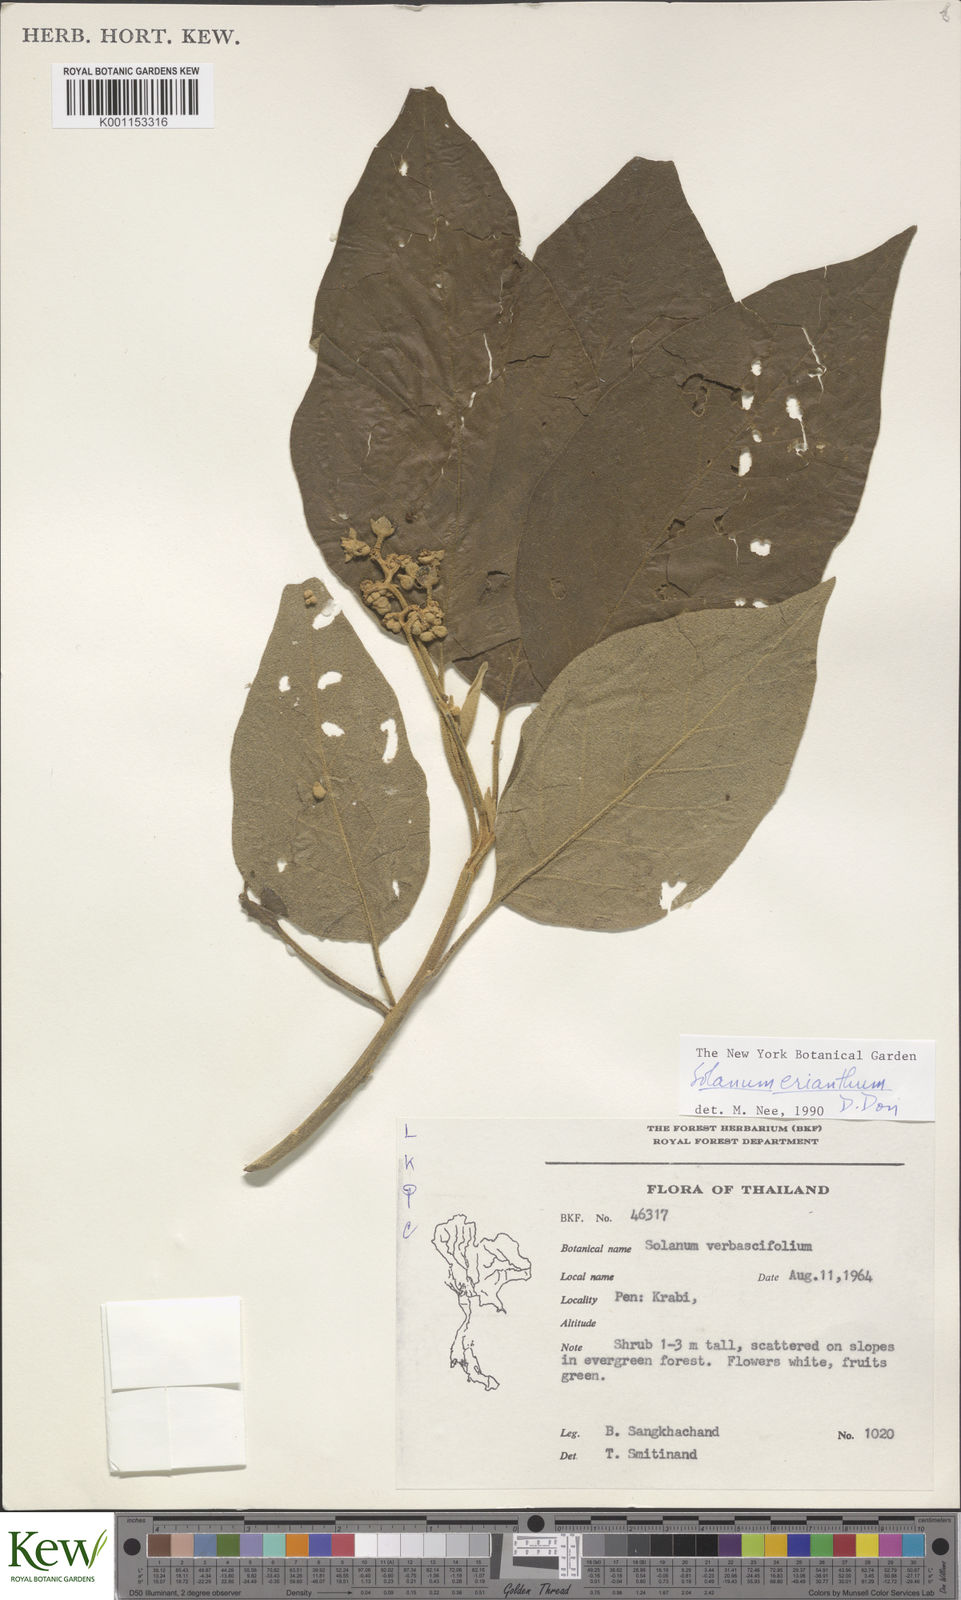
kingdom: Plantae
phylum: Tracheophyta
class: Magnoliopsida
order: Solanales
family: Solanaceae
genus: Solanum
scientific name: Solanum erianthum
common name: Tobacco-tree
